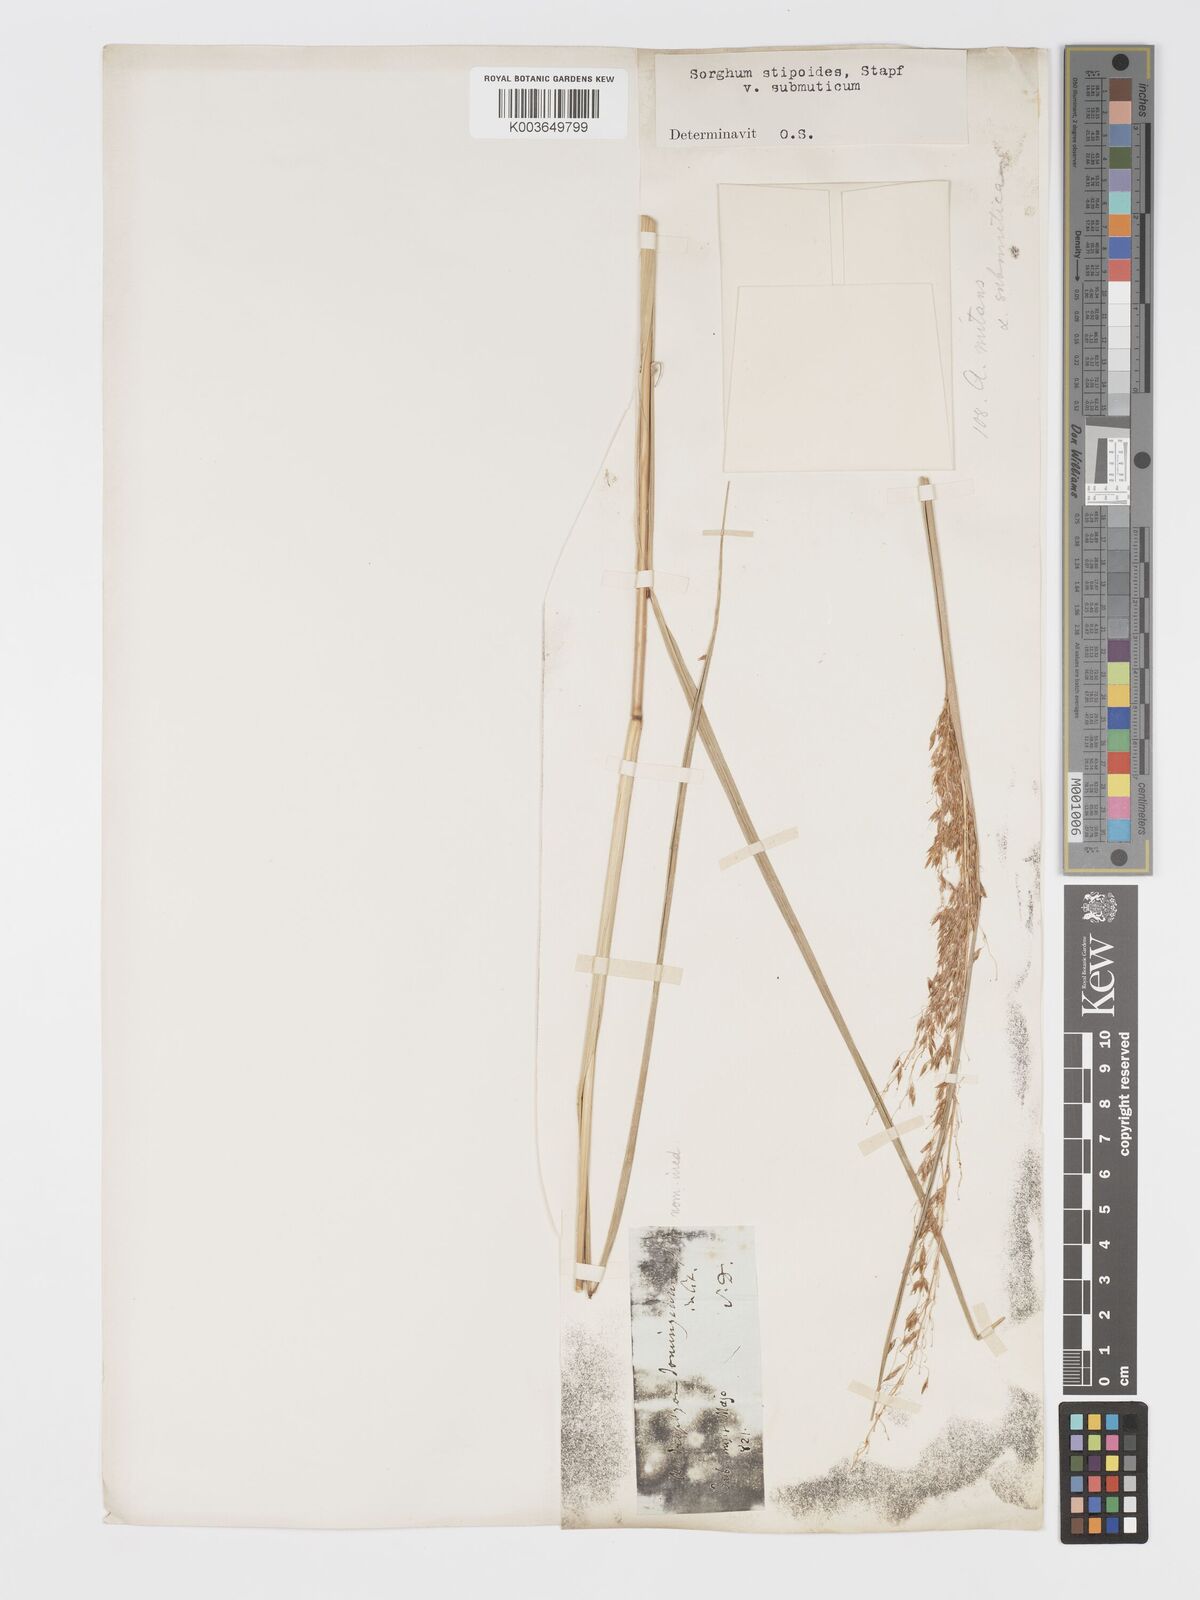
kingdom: Plantae
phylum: Tracheophyta
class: Liliopsida
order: Poales
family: Poaceae
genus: Sorghastrum
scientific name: Sorghastrum setosum
